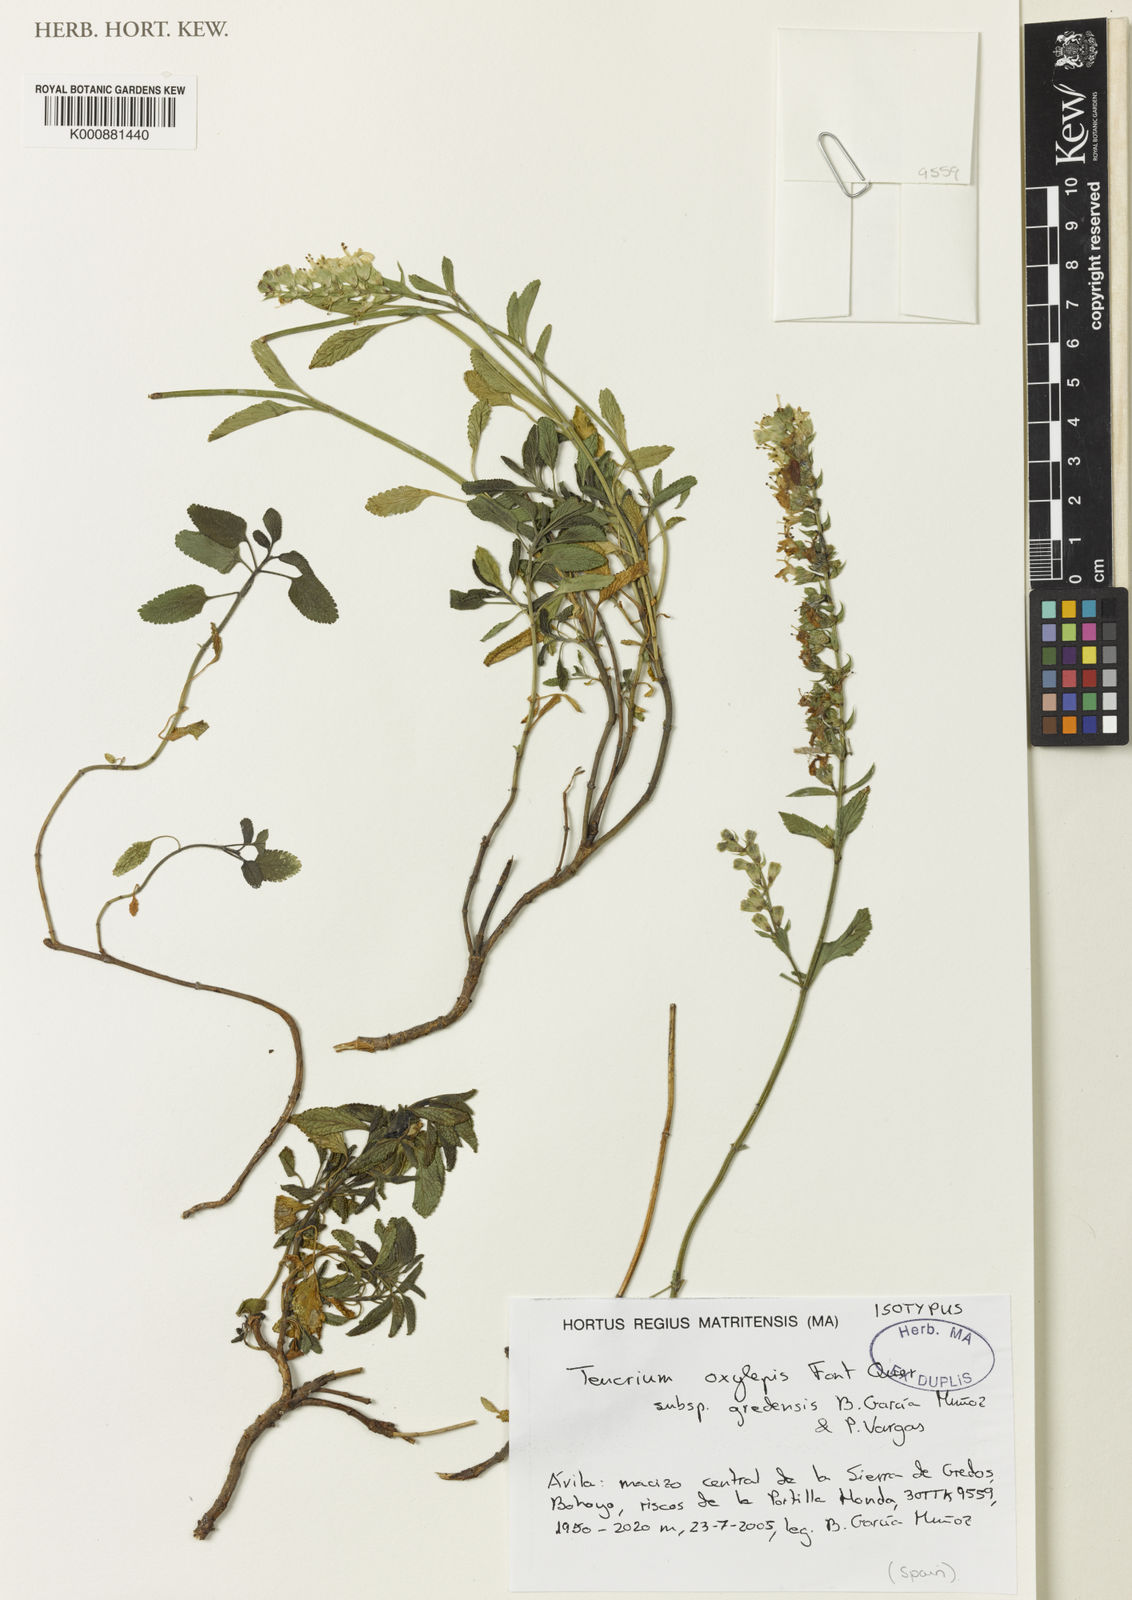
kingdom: Plantae
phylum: Tracheophyta
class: Magnoliopsida
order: Lamiales
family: Lamiaceae
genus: Teucrium
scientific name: Teucrium oxylepis
